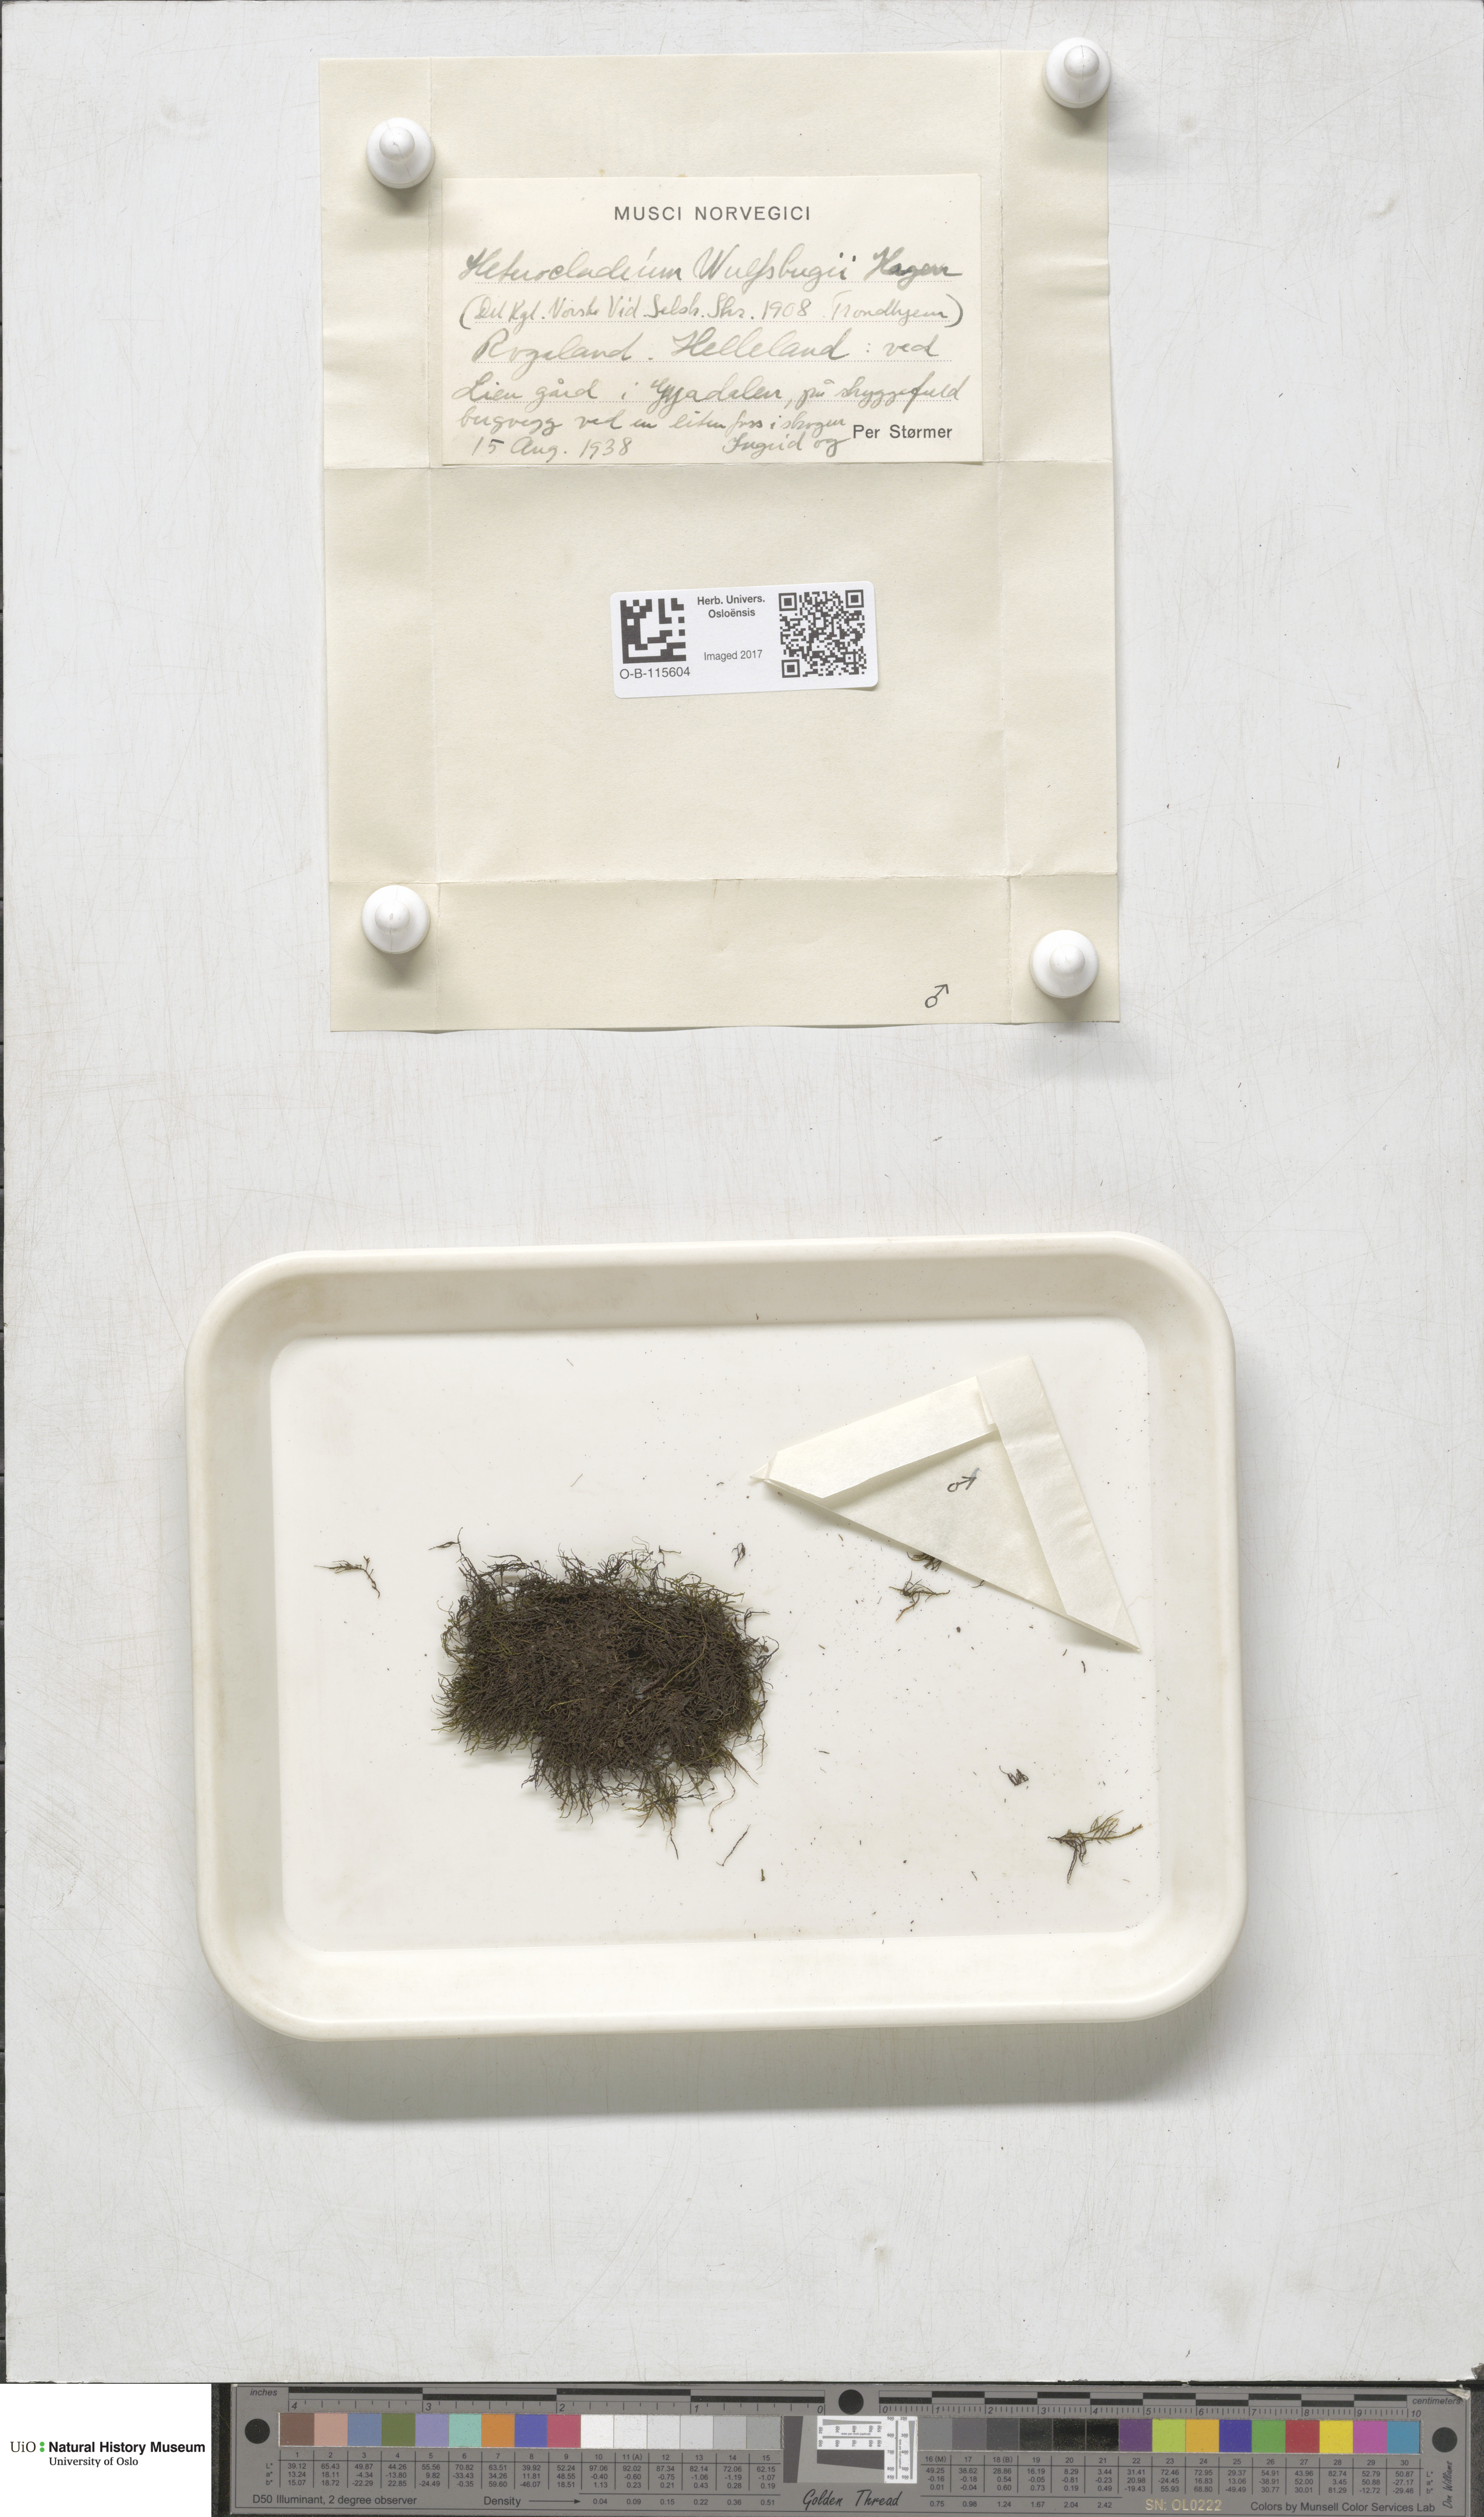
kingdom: Plantae
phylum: Bryophyta
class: Bryopsida
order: Hypnales
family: Lembophyllaceae
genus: Heterocladium
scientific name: Heterocladium heteropterum
